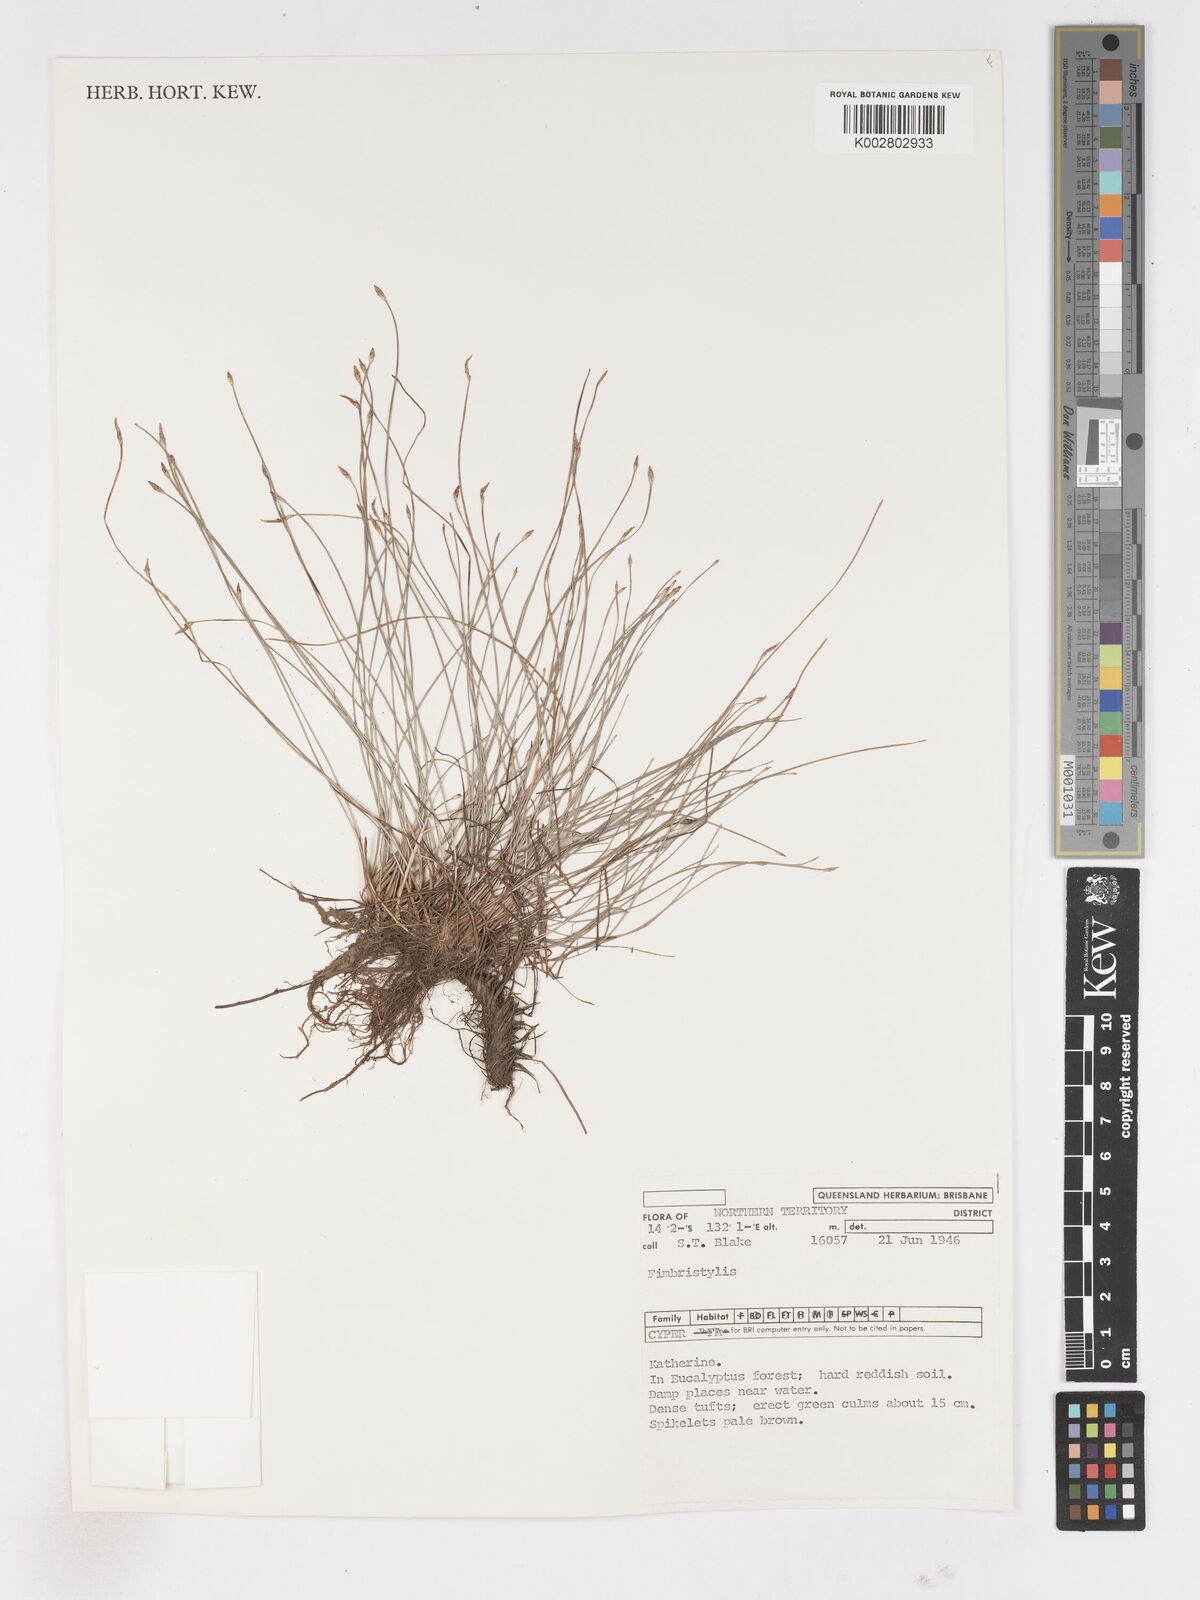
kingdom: Plantae
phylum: Tracheophyta
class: Liliopsida
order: Poales
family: Cyperaceae
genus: Fimbristylis
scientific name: Fimbristylis
